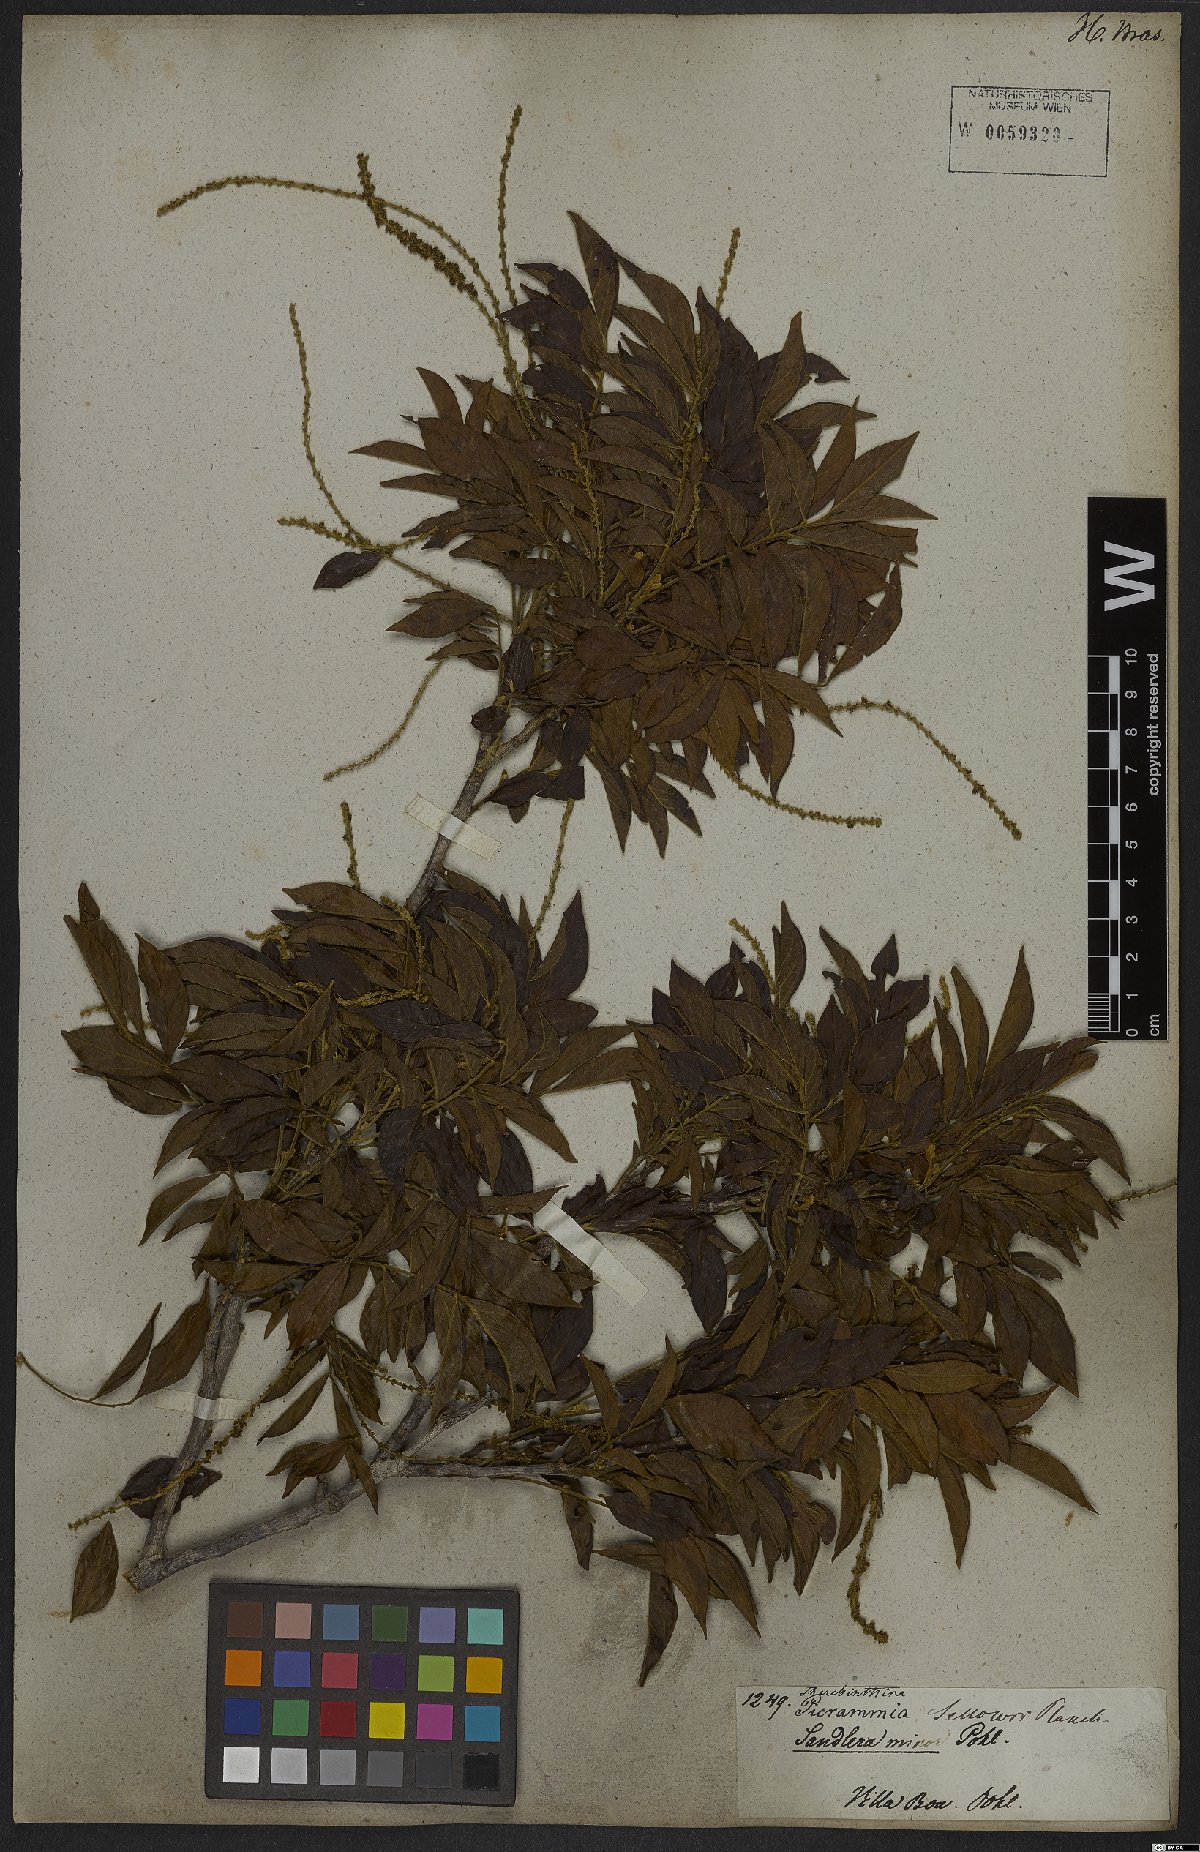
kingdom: Plantae
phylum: Tracheophyta
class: Magnoliopsida
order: Picramniales
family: Picramniaceae
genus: Picramnia
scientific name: Picramnia sellowii
